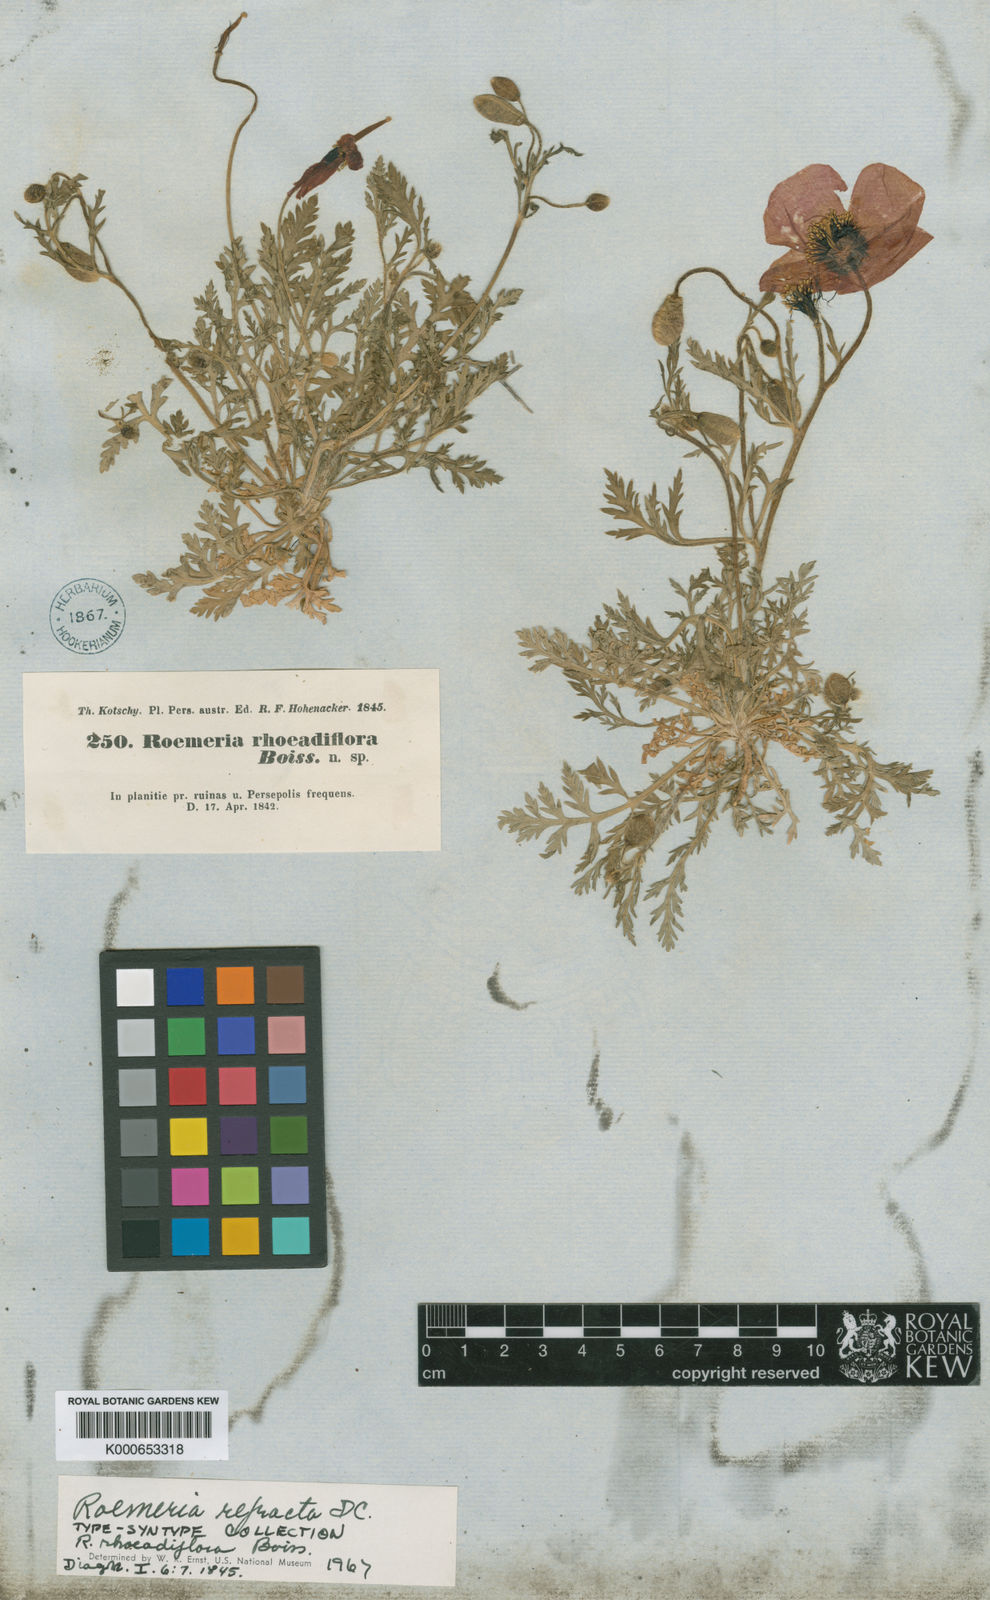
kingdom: Plantae
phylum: Tracheophyta
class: Magnoliopsida
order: Ranunculales
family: Papaveraceae
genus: Roemeria
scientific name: Roemeria refracta
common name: Spotted asian poppy
